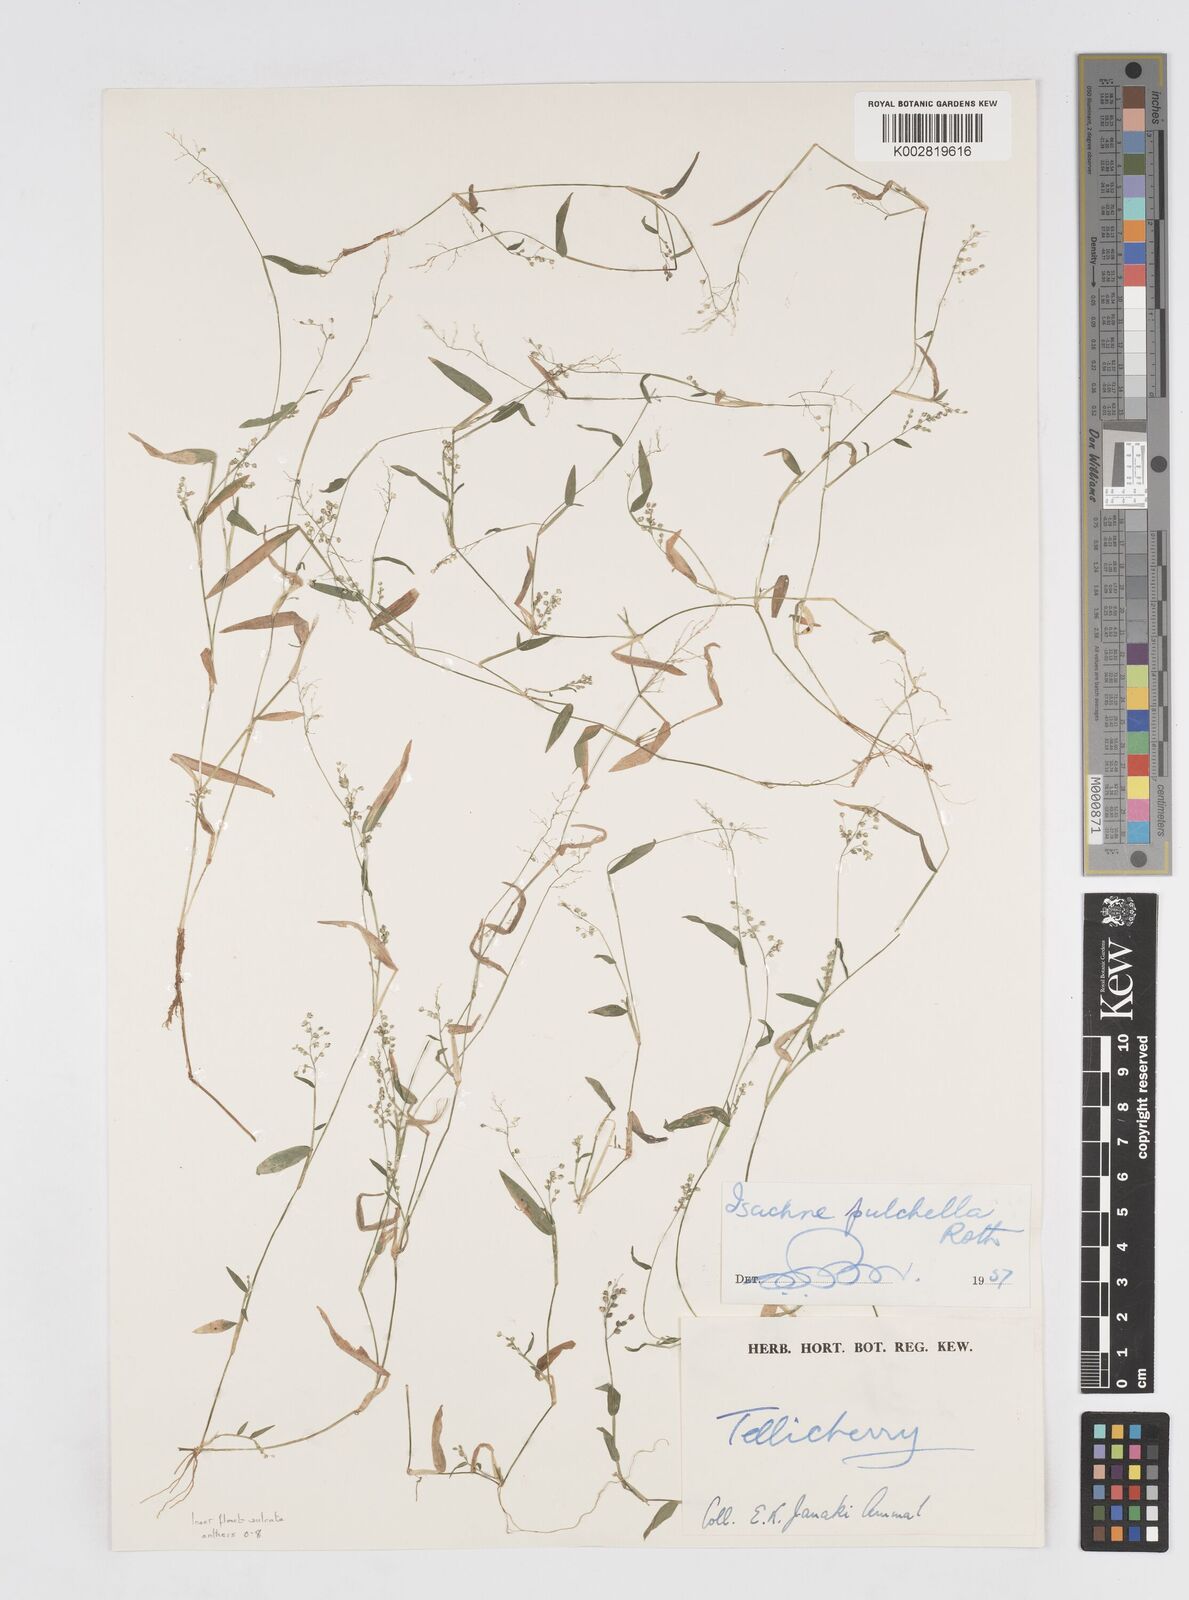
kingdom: Plantae
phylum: Tracheophyta
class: Liliopsida
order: Poales
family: Poaceae
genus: Isachne
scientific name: Isachne globosa
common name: Swamp millet
